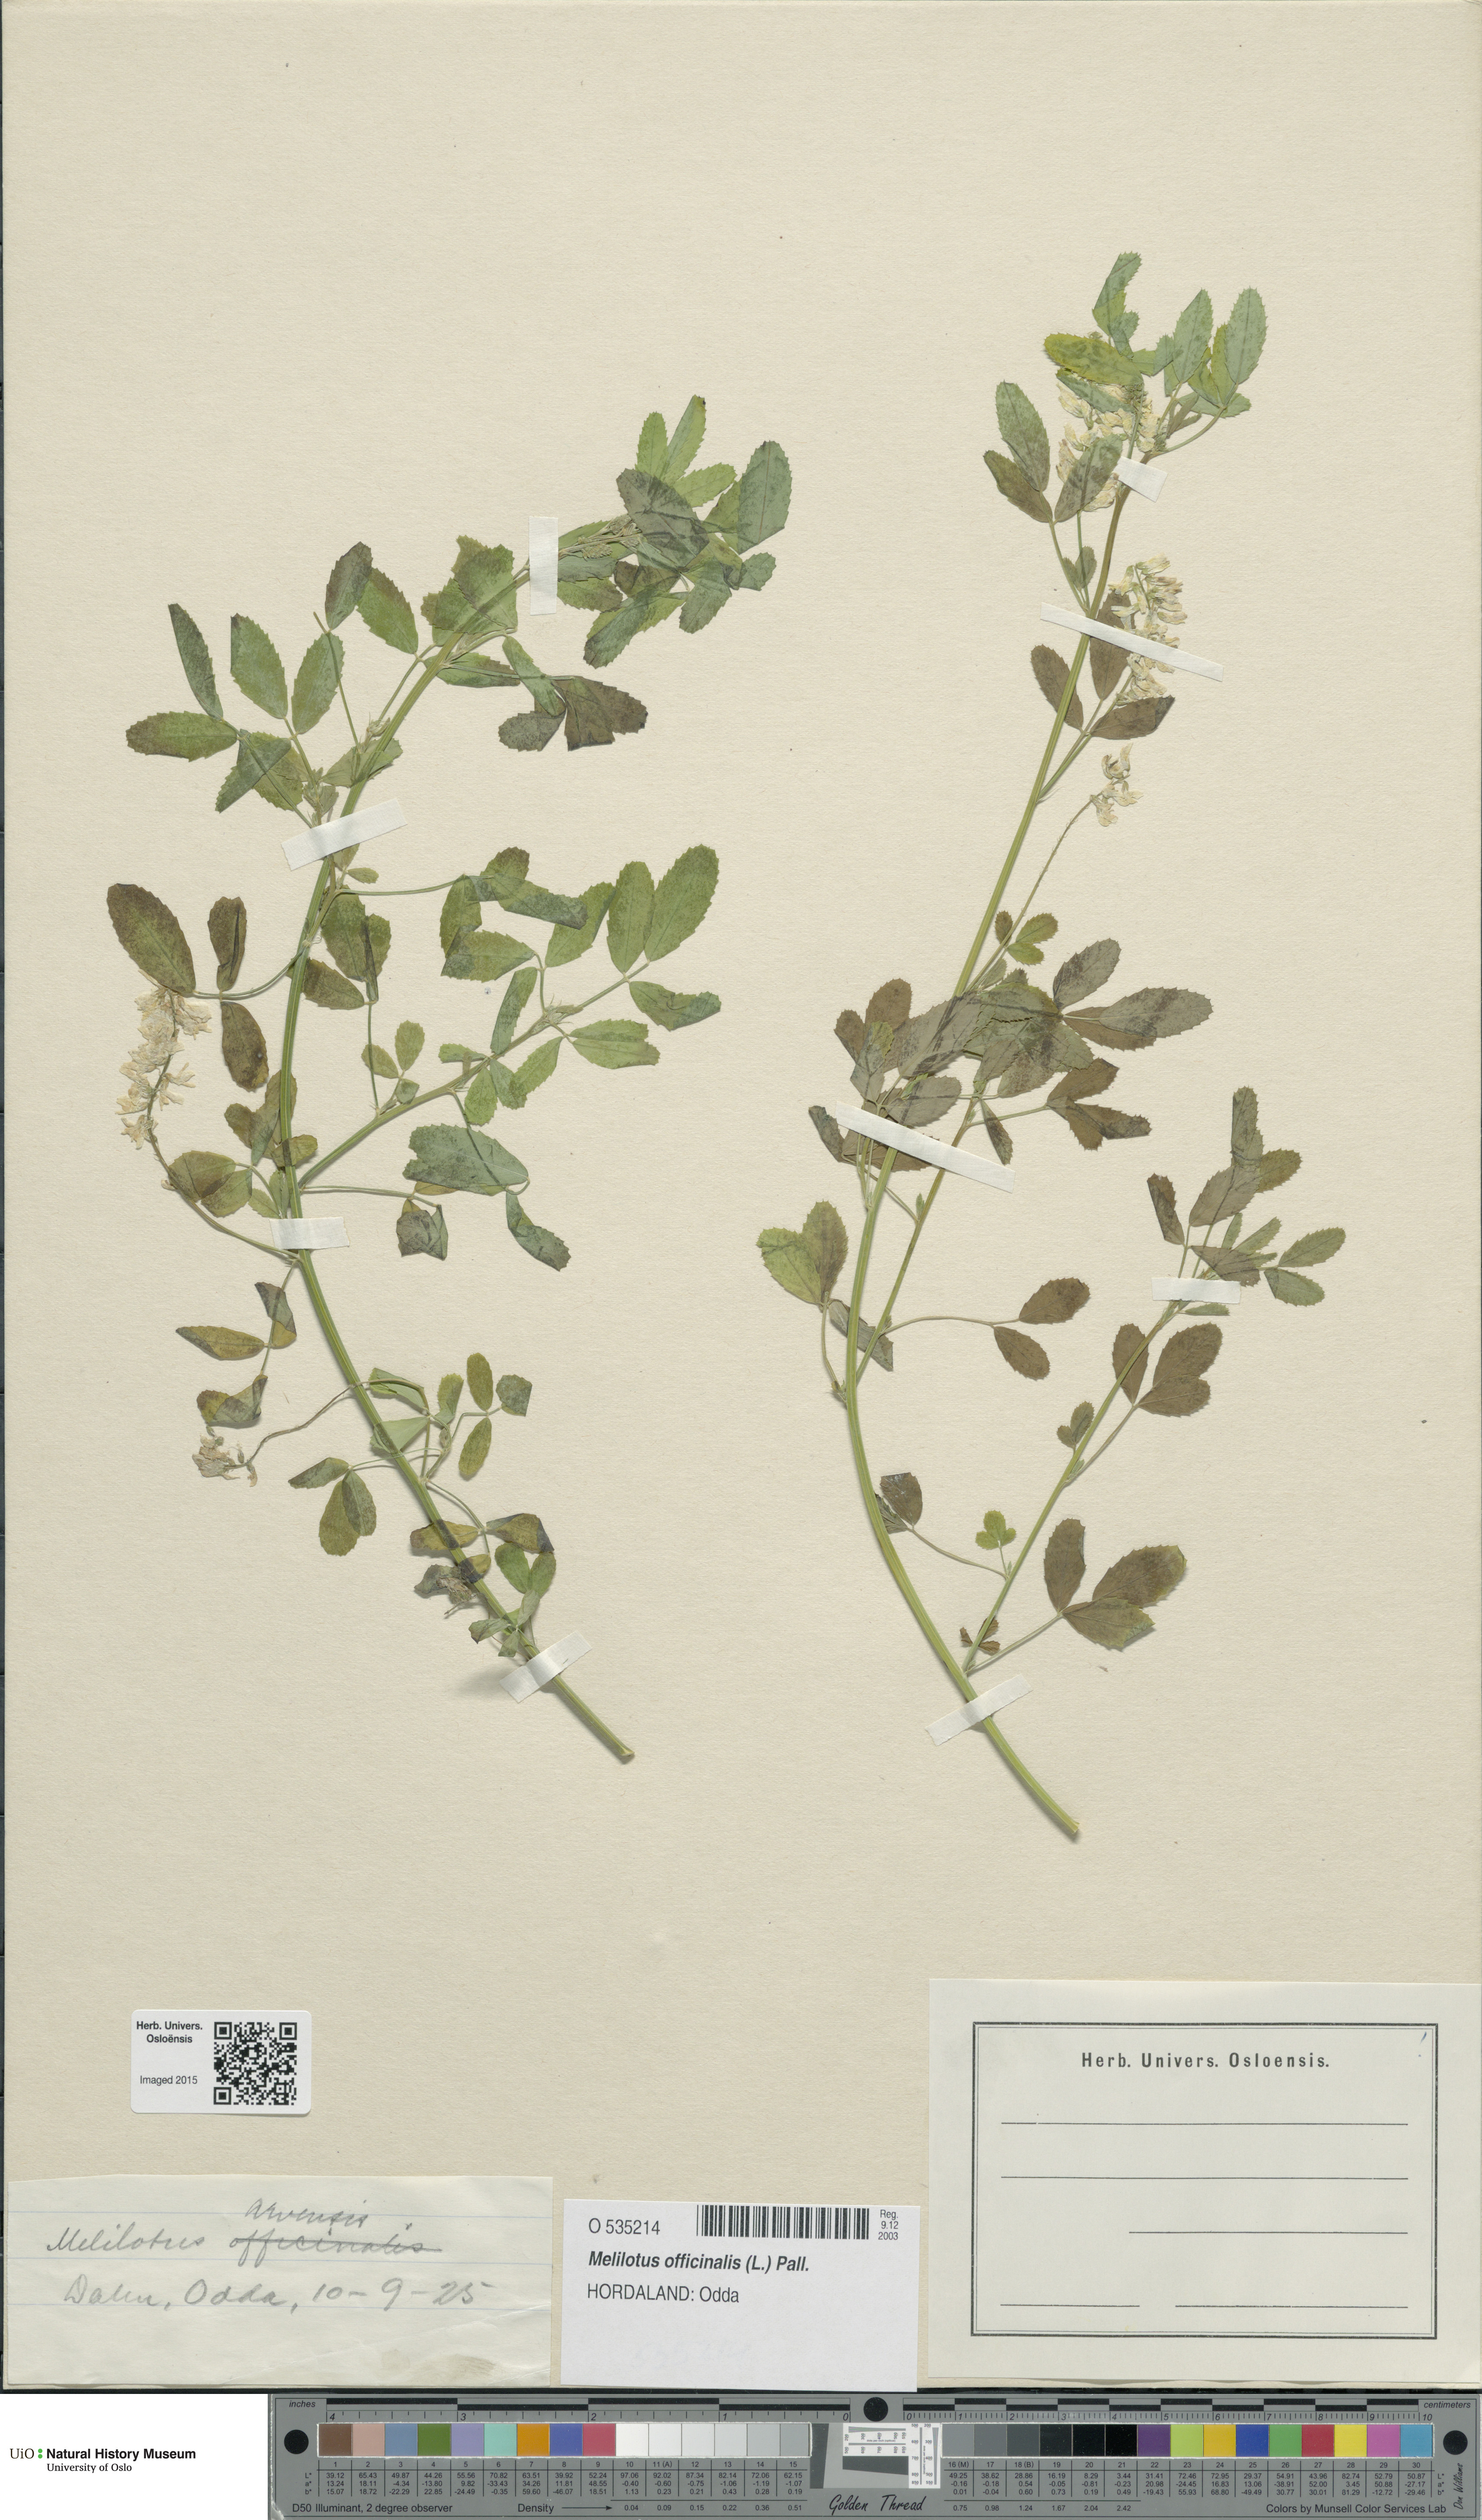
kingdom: Plantae
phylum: Tracheophyta
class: Magnoliopsida
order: Fabales
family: Fabaceae
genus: Melilotus
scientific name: Melilotus officinalis
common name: Sweetclover
